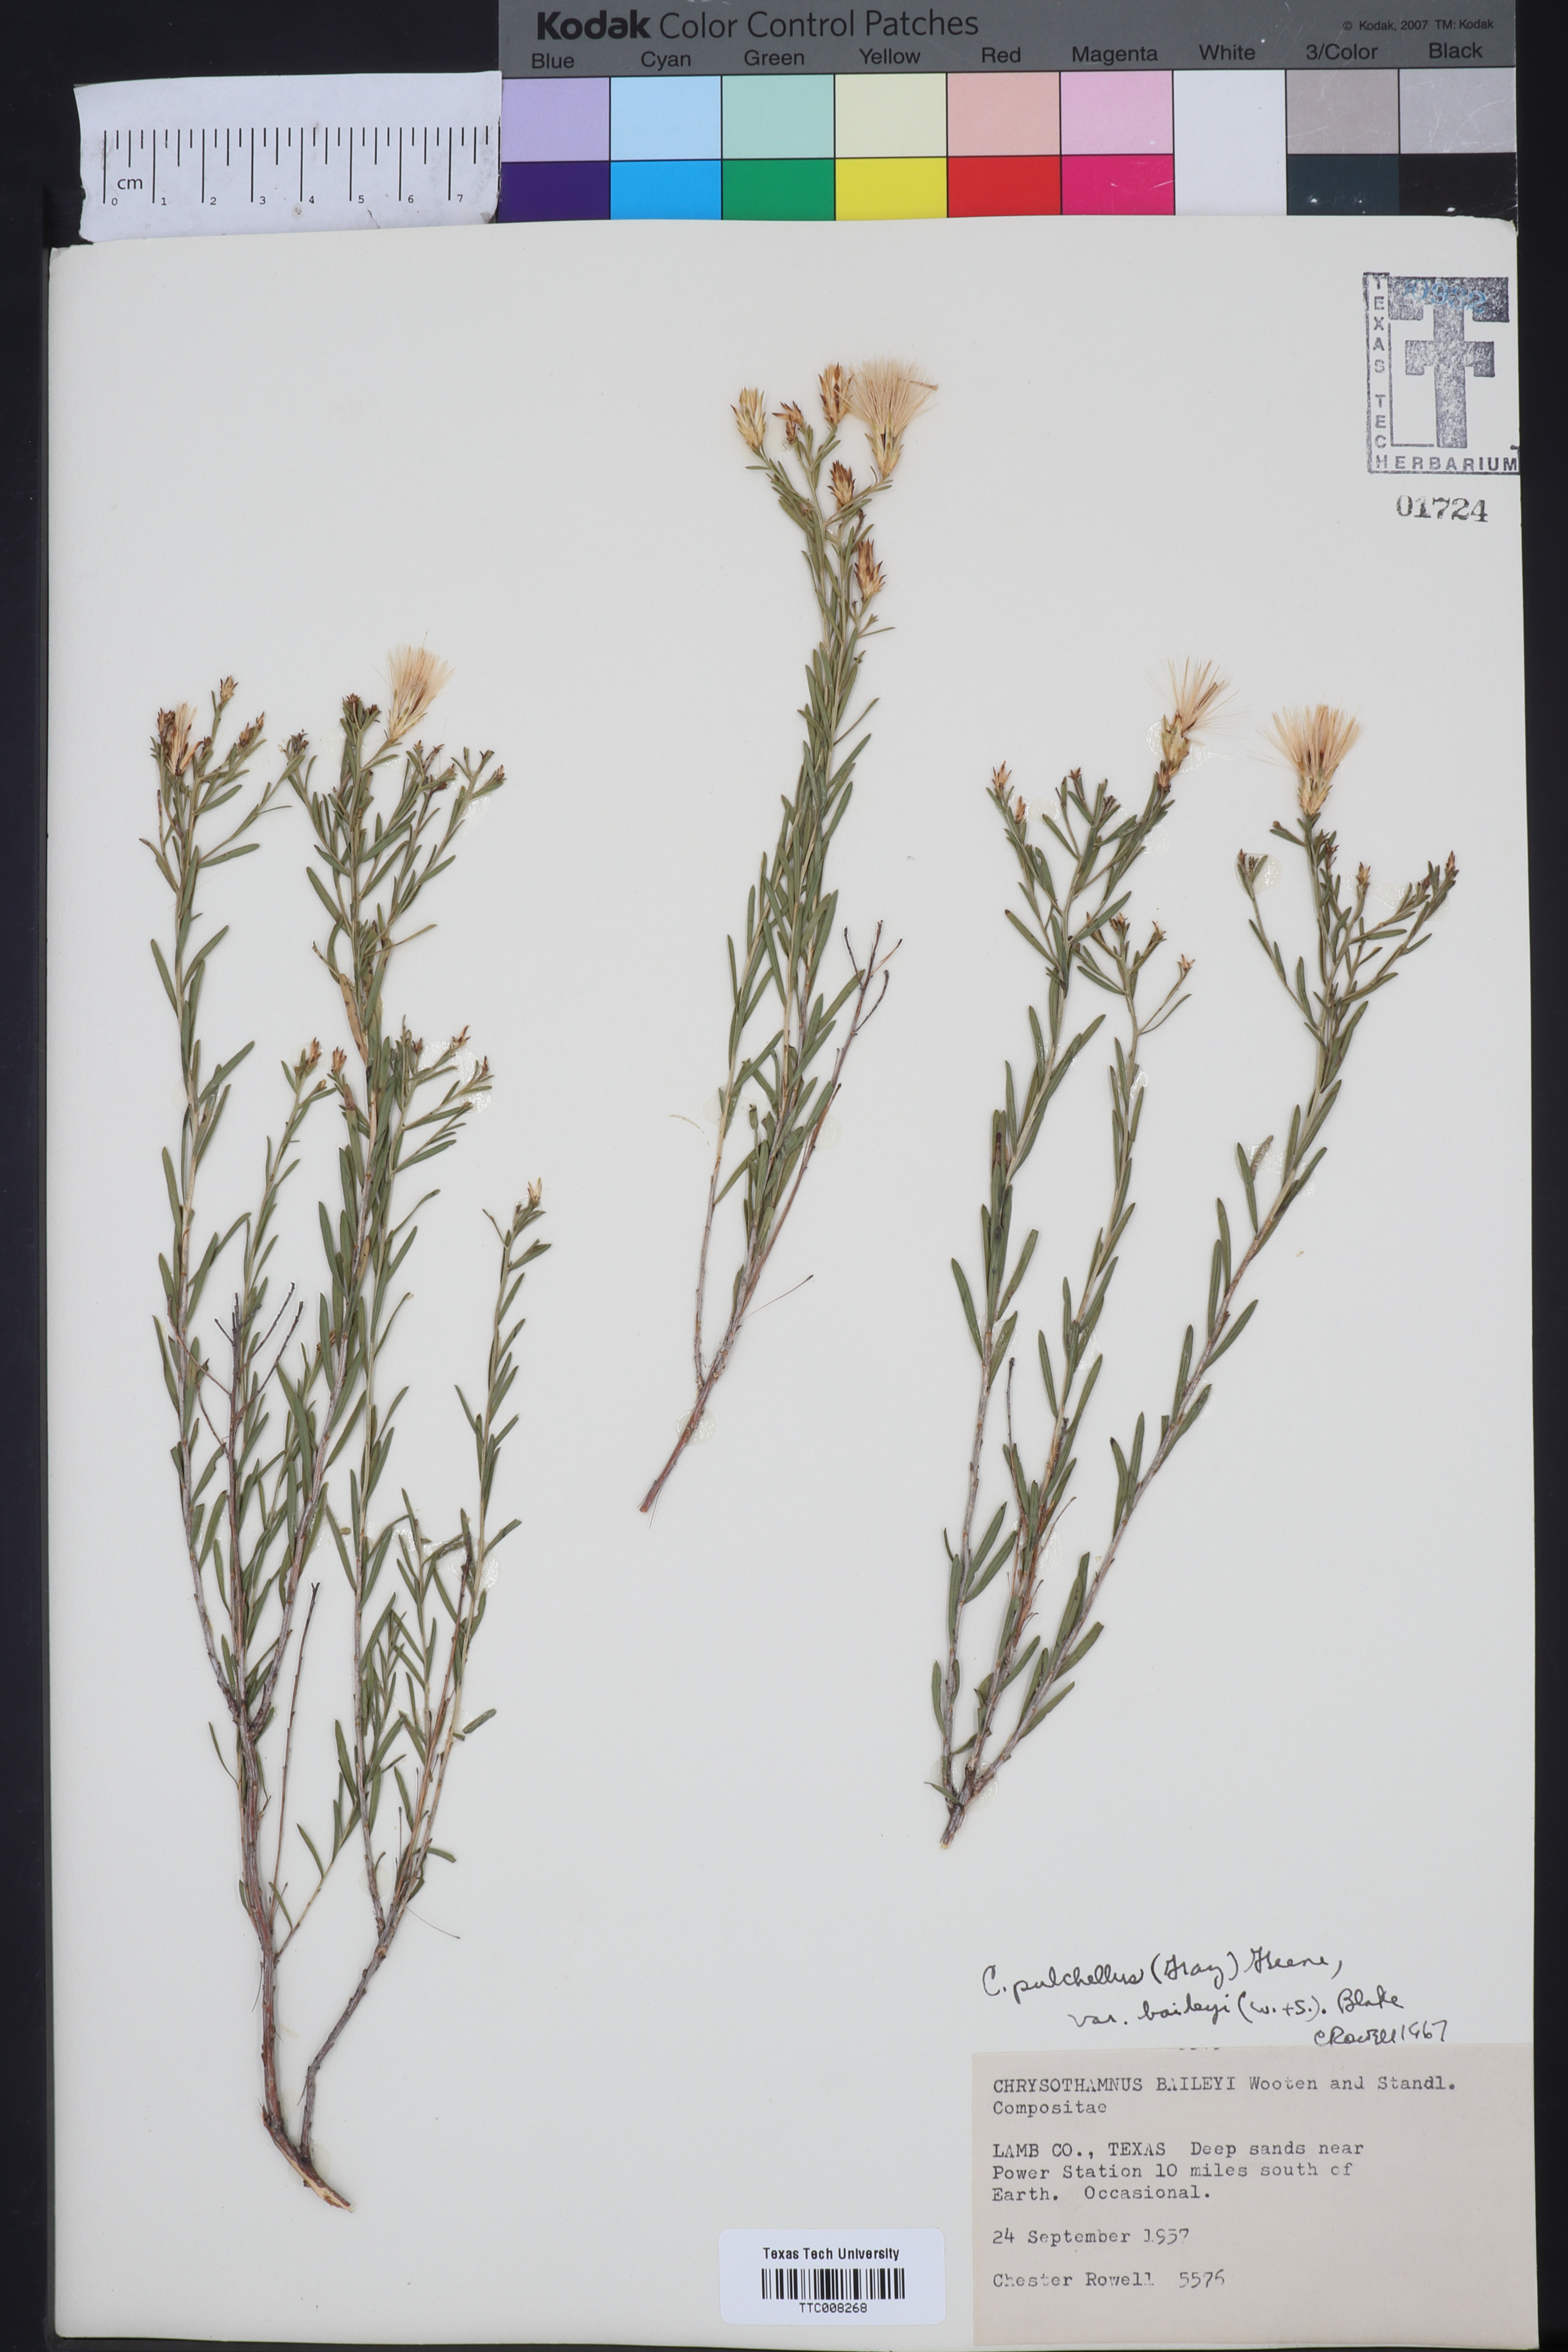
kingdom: Plantae
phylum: Tracheophyta
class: Magnoliopsida
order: Asterales
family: Asteraceae
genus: Lorandersonia
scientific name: Lorandersonia baileyi
